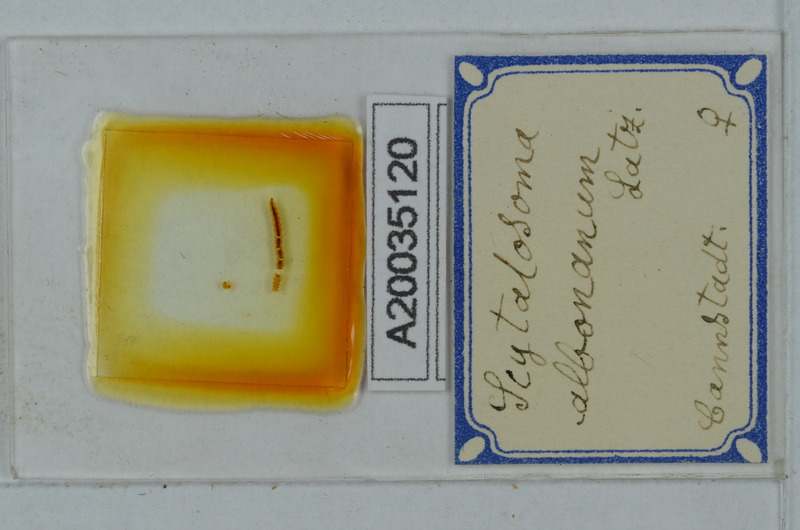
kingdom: Animalia
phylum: Arthropoda
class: Diplopoda
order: Polydesmida
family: Macrosternodesmidae
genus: Ophiodesmus
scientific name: Ophiodesmus albonanus
